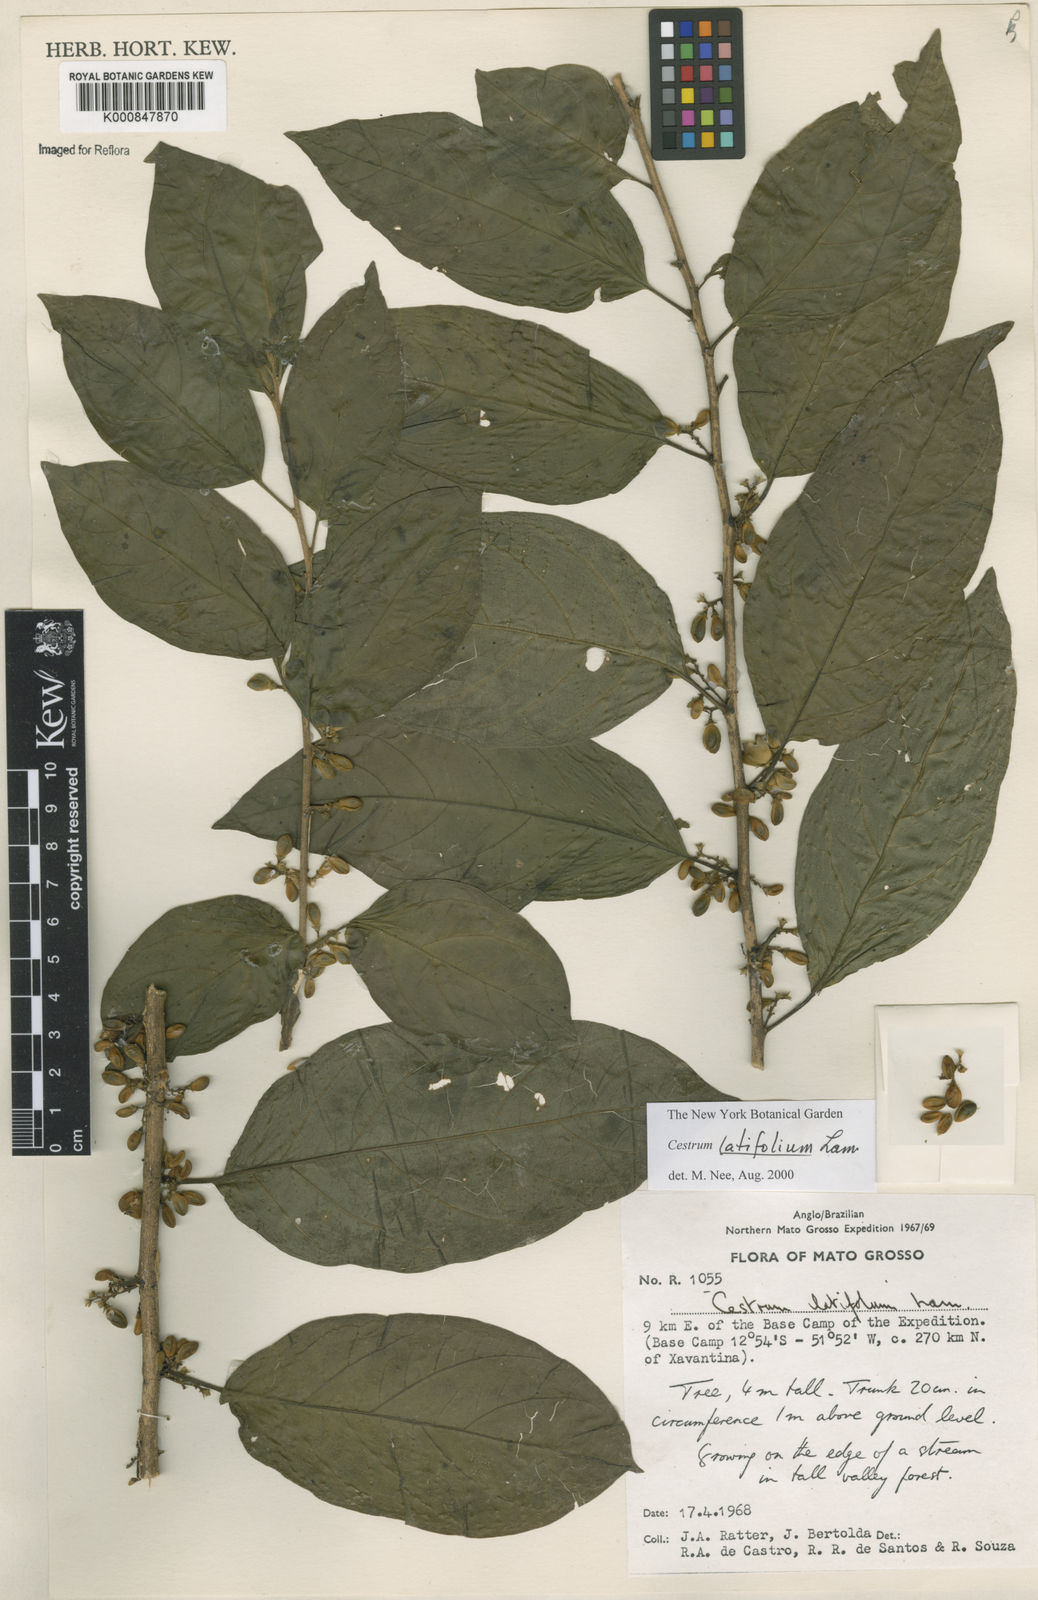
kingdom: Plantae
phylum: Tracheophyta
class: Magnoliopsida
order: Solanales
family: Solanaceae
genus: Cestrum
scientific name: Cestrum latifolium
